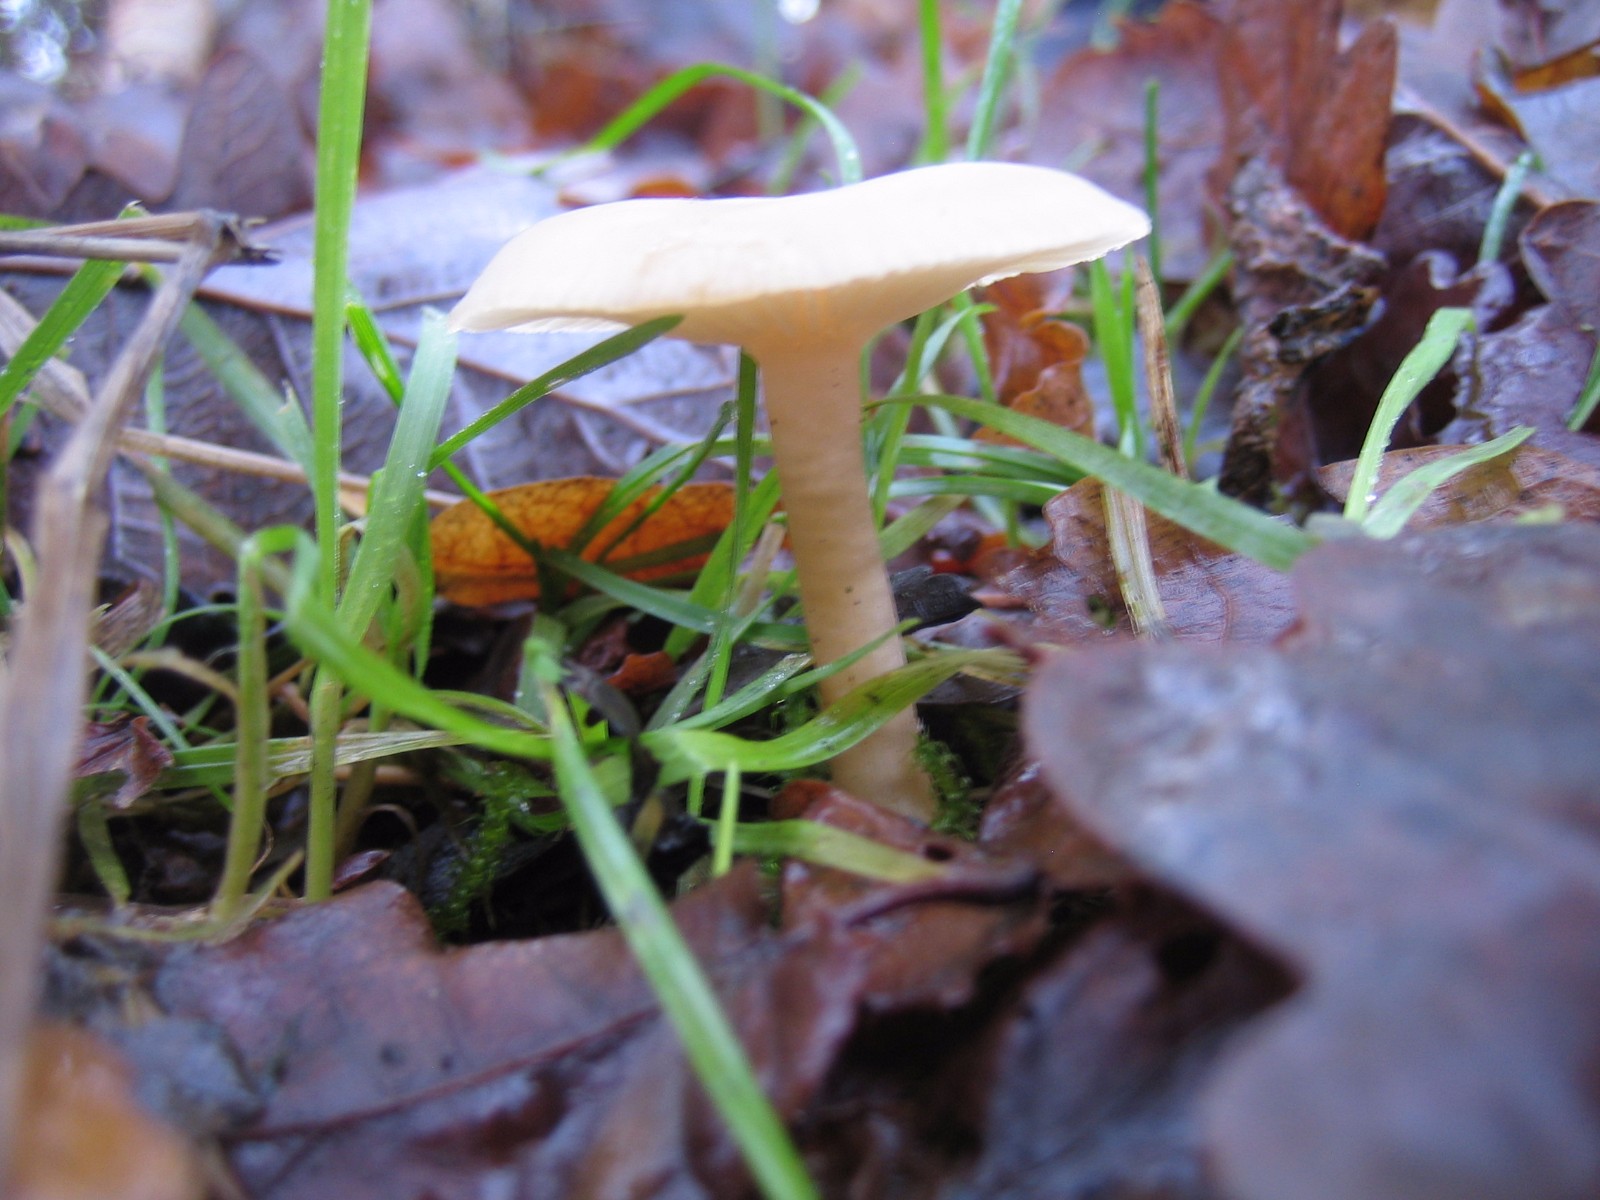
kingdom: Fungi
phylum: Basidiomycota
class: Agaricomycetes
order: Agaricales
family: Tricholomataceae
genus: Clitocybe
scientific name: Clitocybe fragrans
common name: vellugtende tragthat
